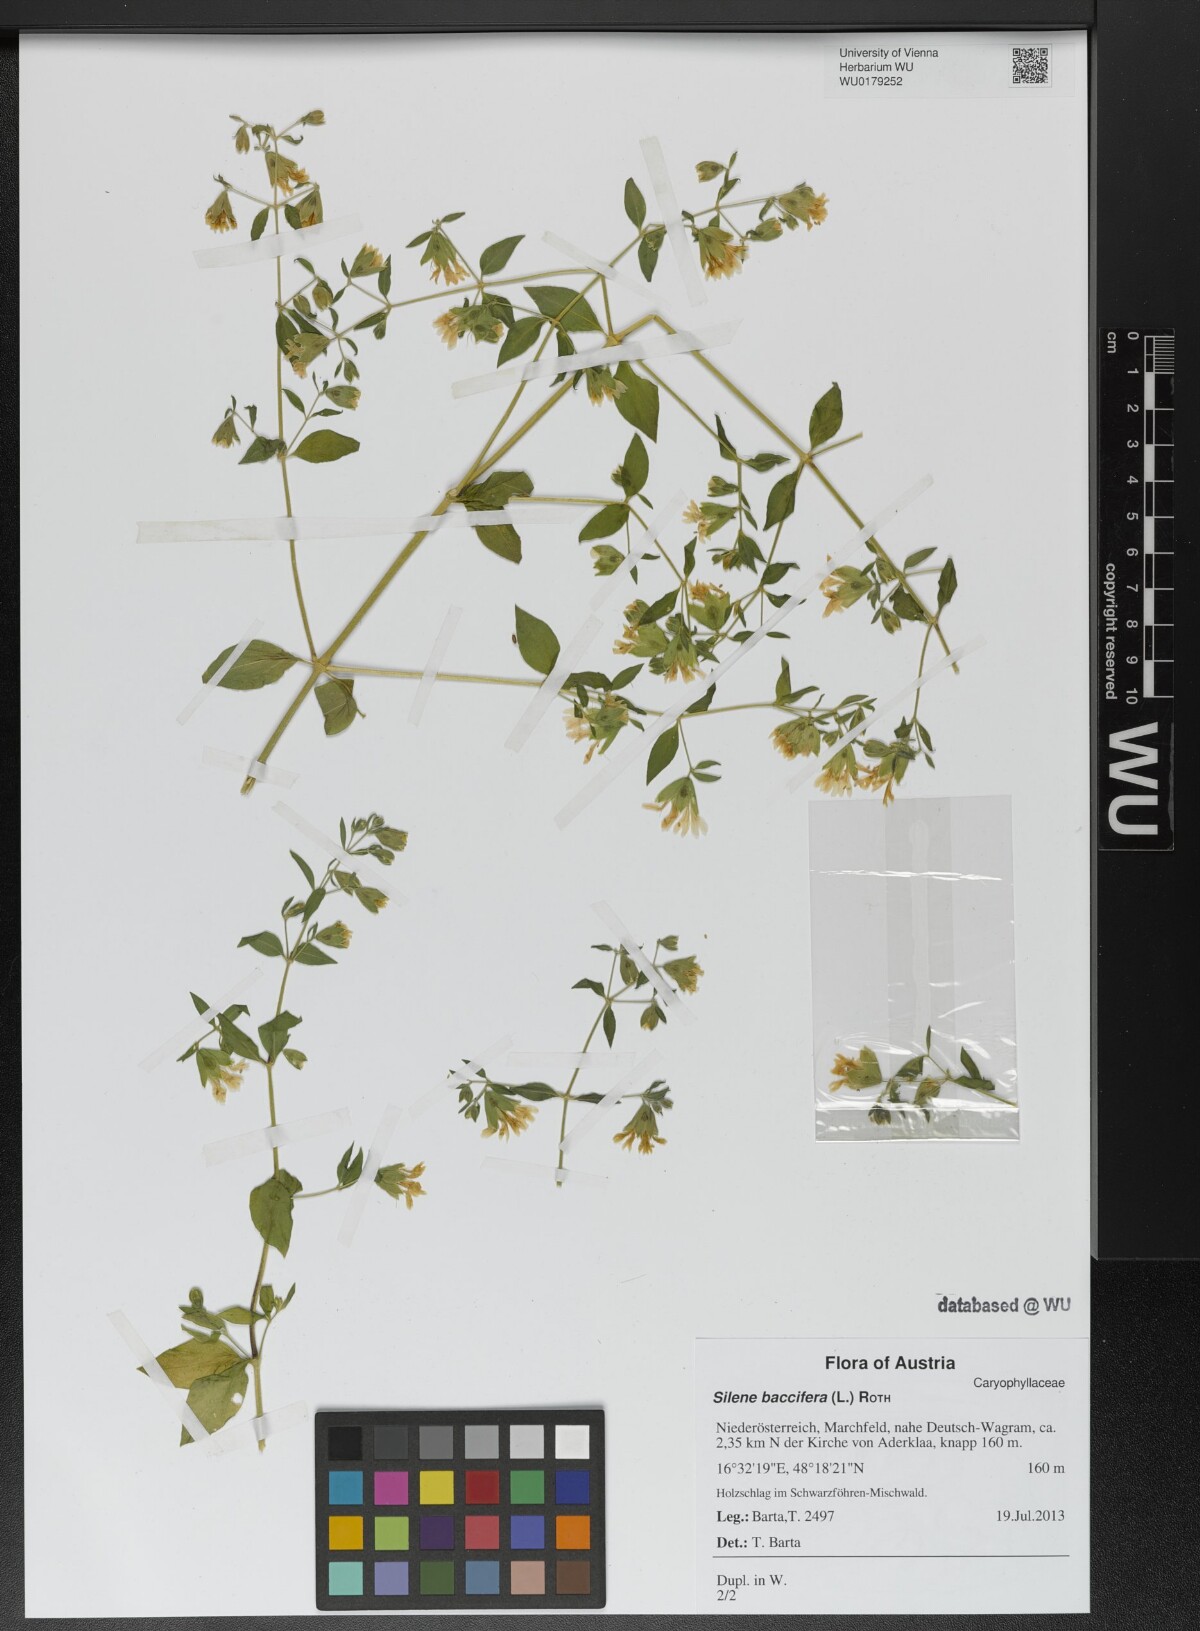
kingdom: Plantae
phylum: Tracheophyta
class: Magnoliopsida
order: Caryophyllales
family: Caryophyllaceae
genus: Silene
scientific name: Silene baccifera
